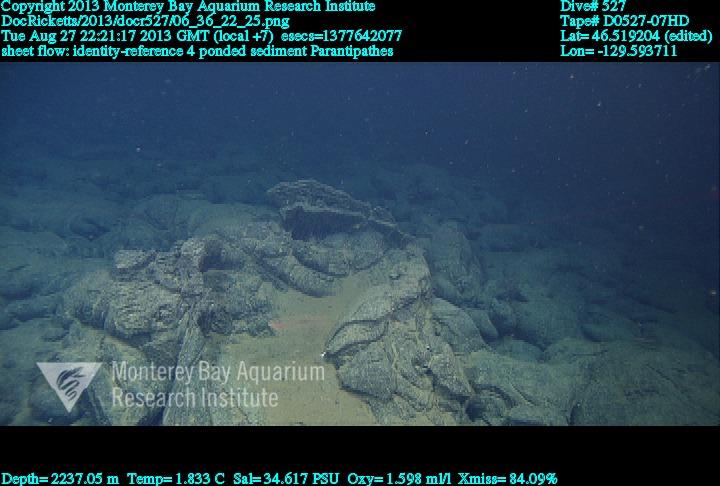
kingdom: Animalia
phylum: Cnidaria
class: Anthozoa
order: Antipatharia
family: Schizopathidae
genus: Parantipathes
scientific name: Parantipathes
